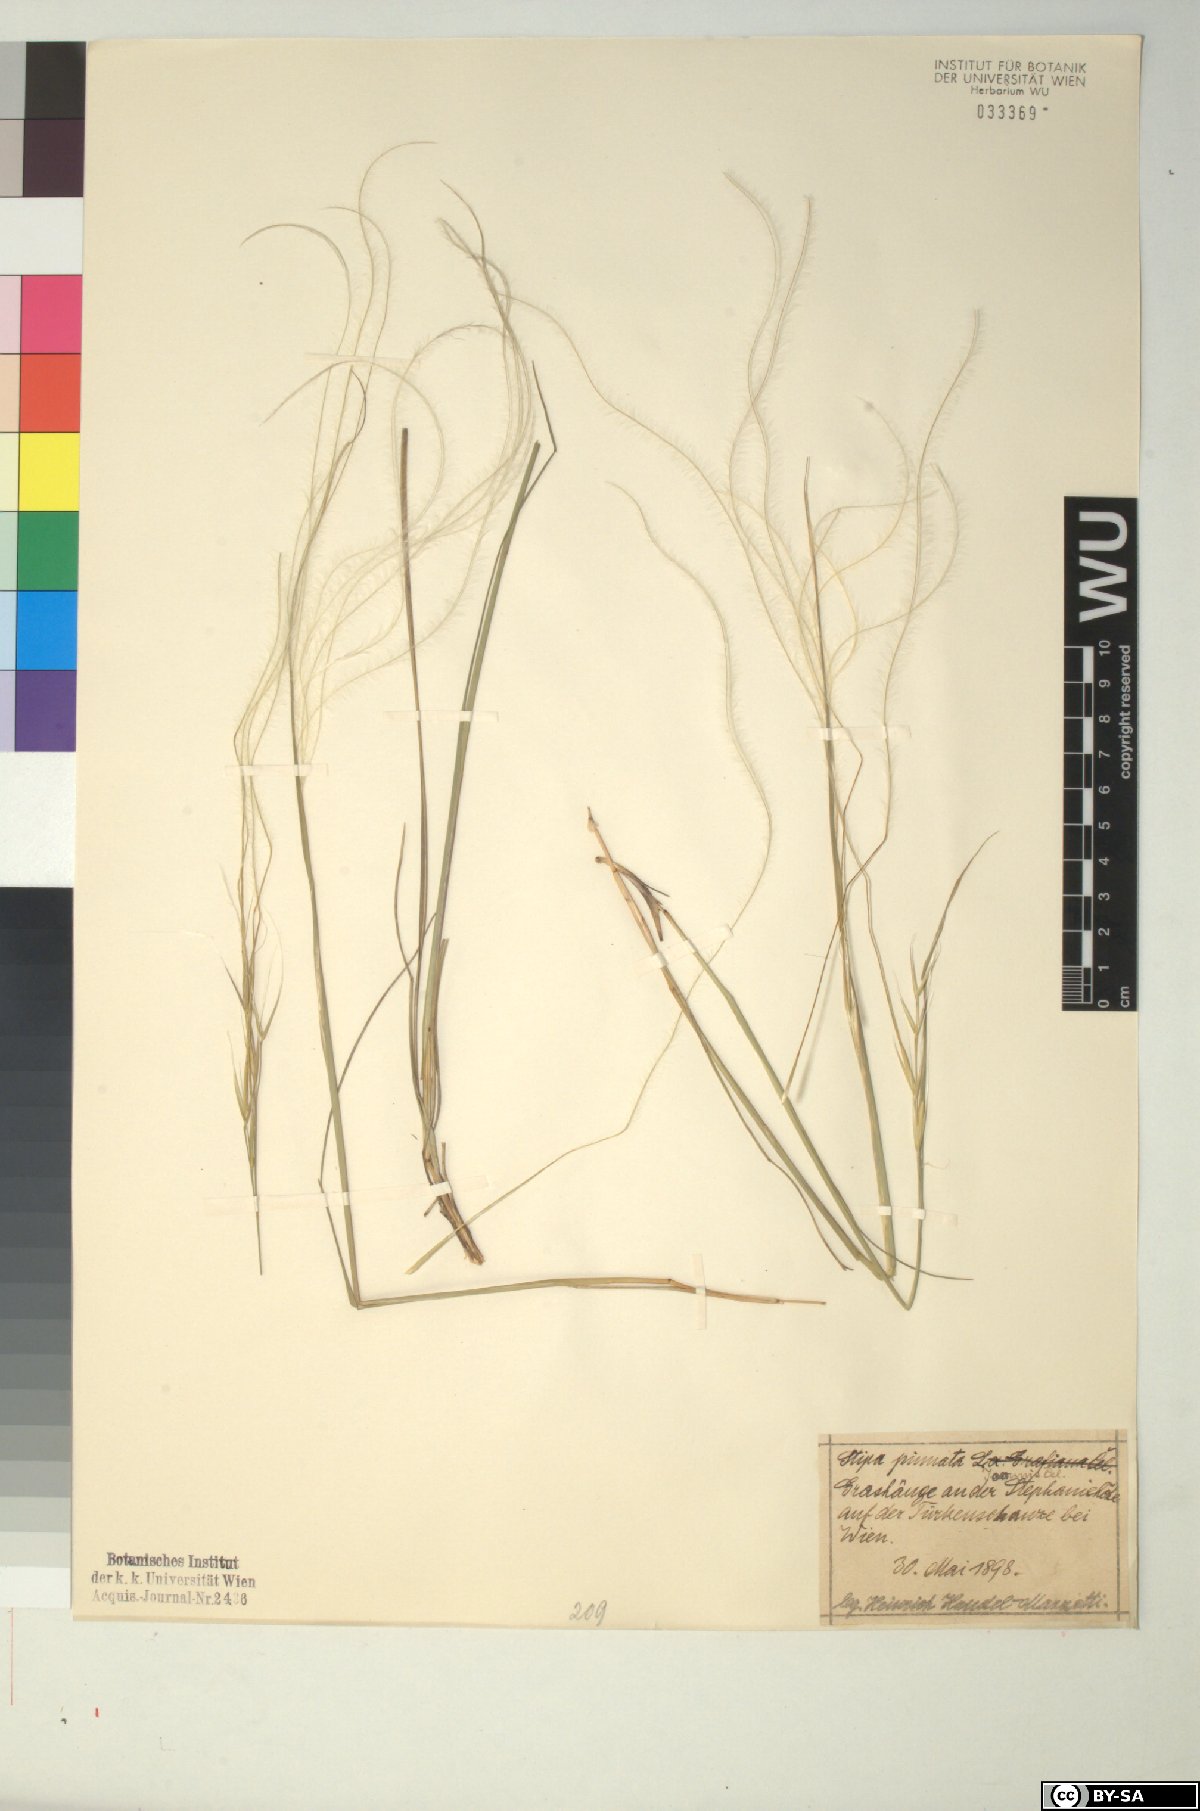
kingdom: Plantae
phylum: Tracheophyta
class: Liliopsida
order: Poales
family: Poaceae
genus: Stipa
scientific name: Stipa pennata
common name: European feather grass
